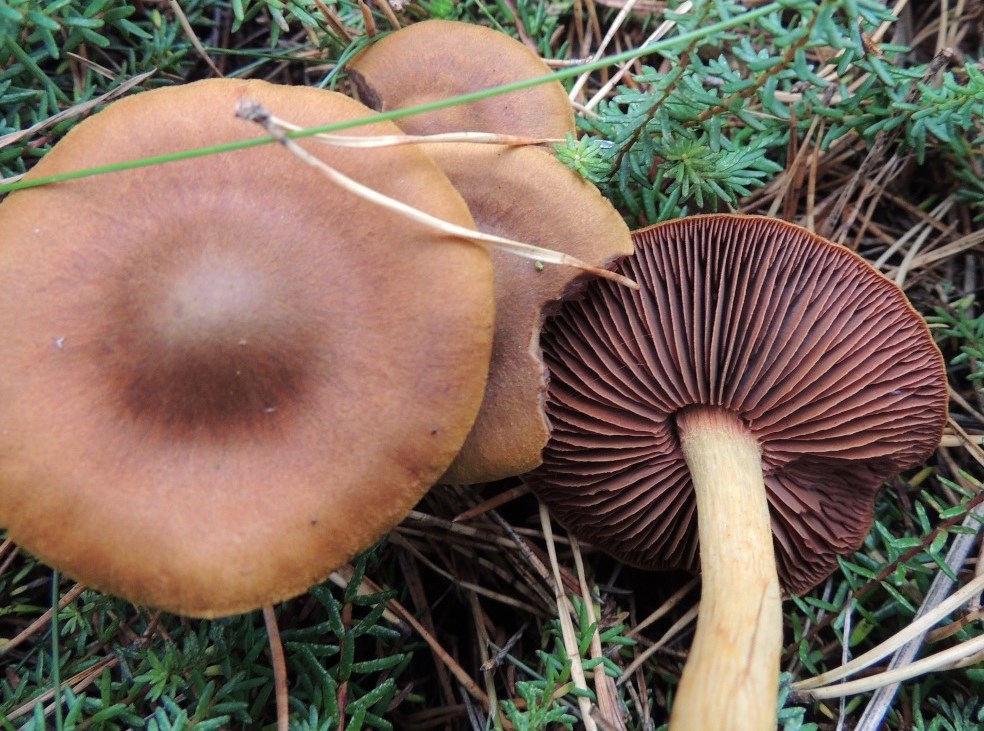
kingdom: Fungi
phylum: Basidiomycota
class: Agaricomycetes
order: Agaricales
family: Cortinariaceae
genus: Cortinarius
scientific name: Cortinarius
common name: cinnoberbladet slørhat
